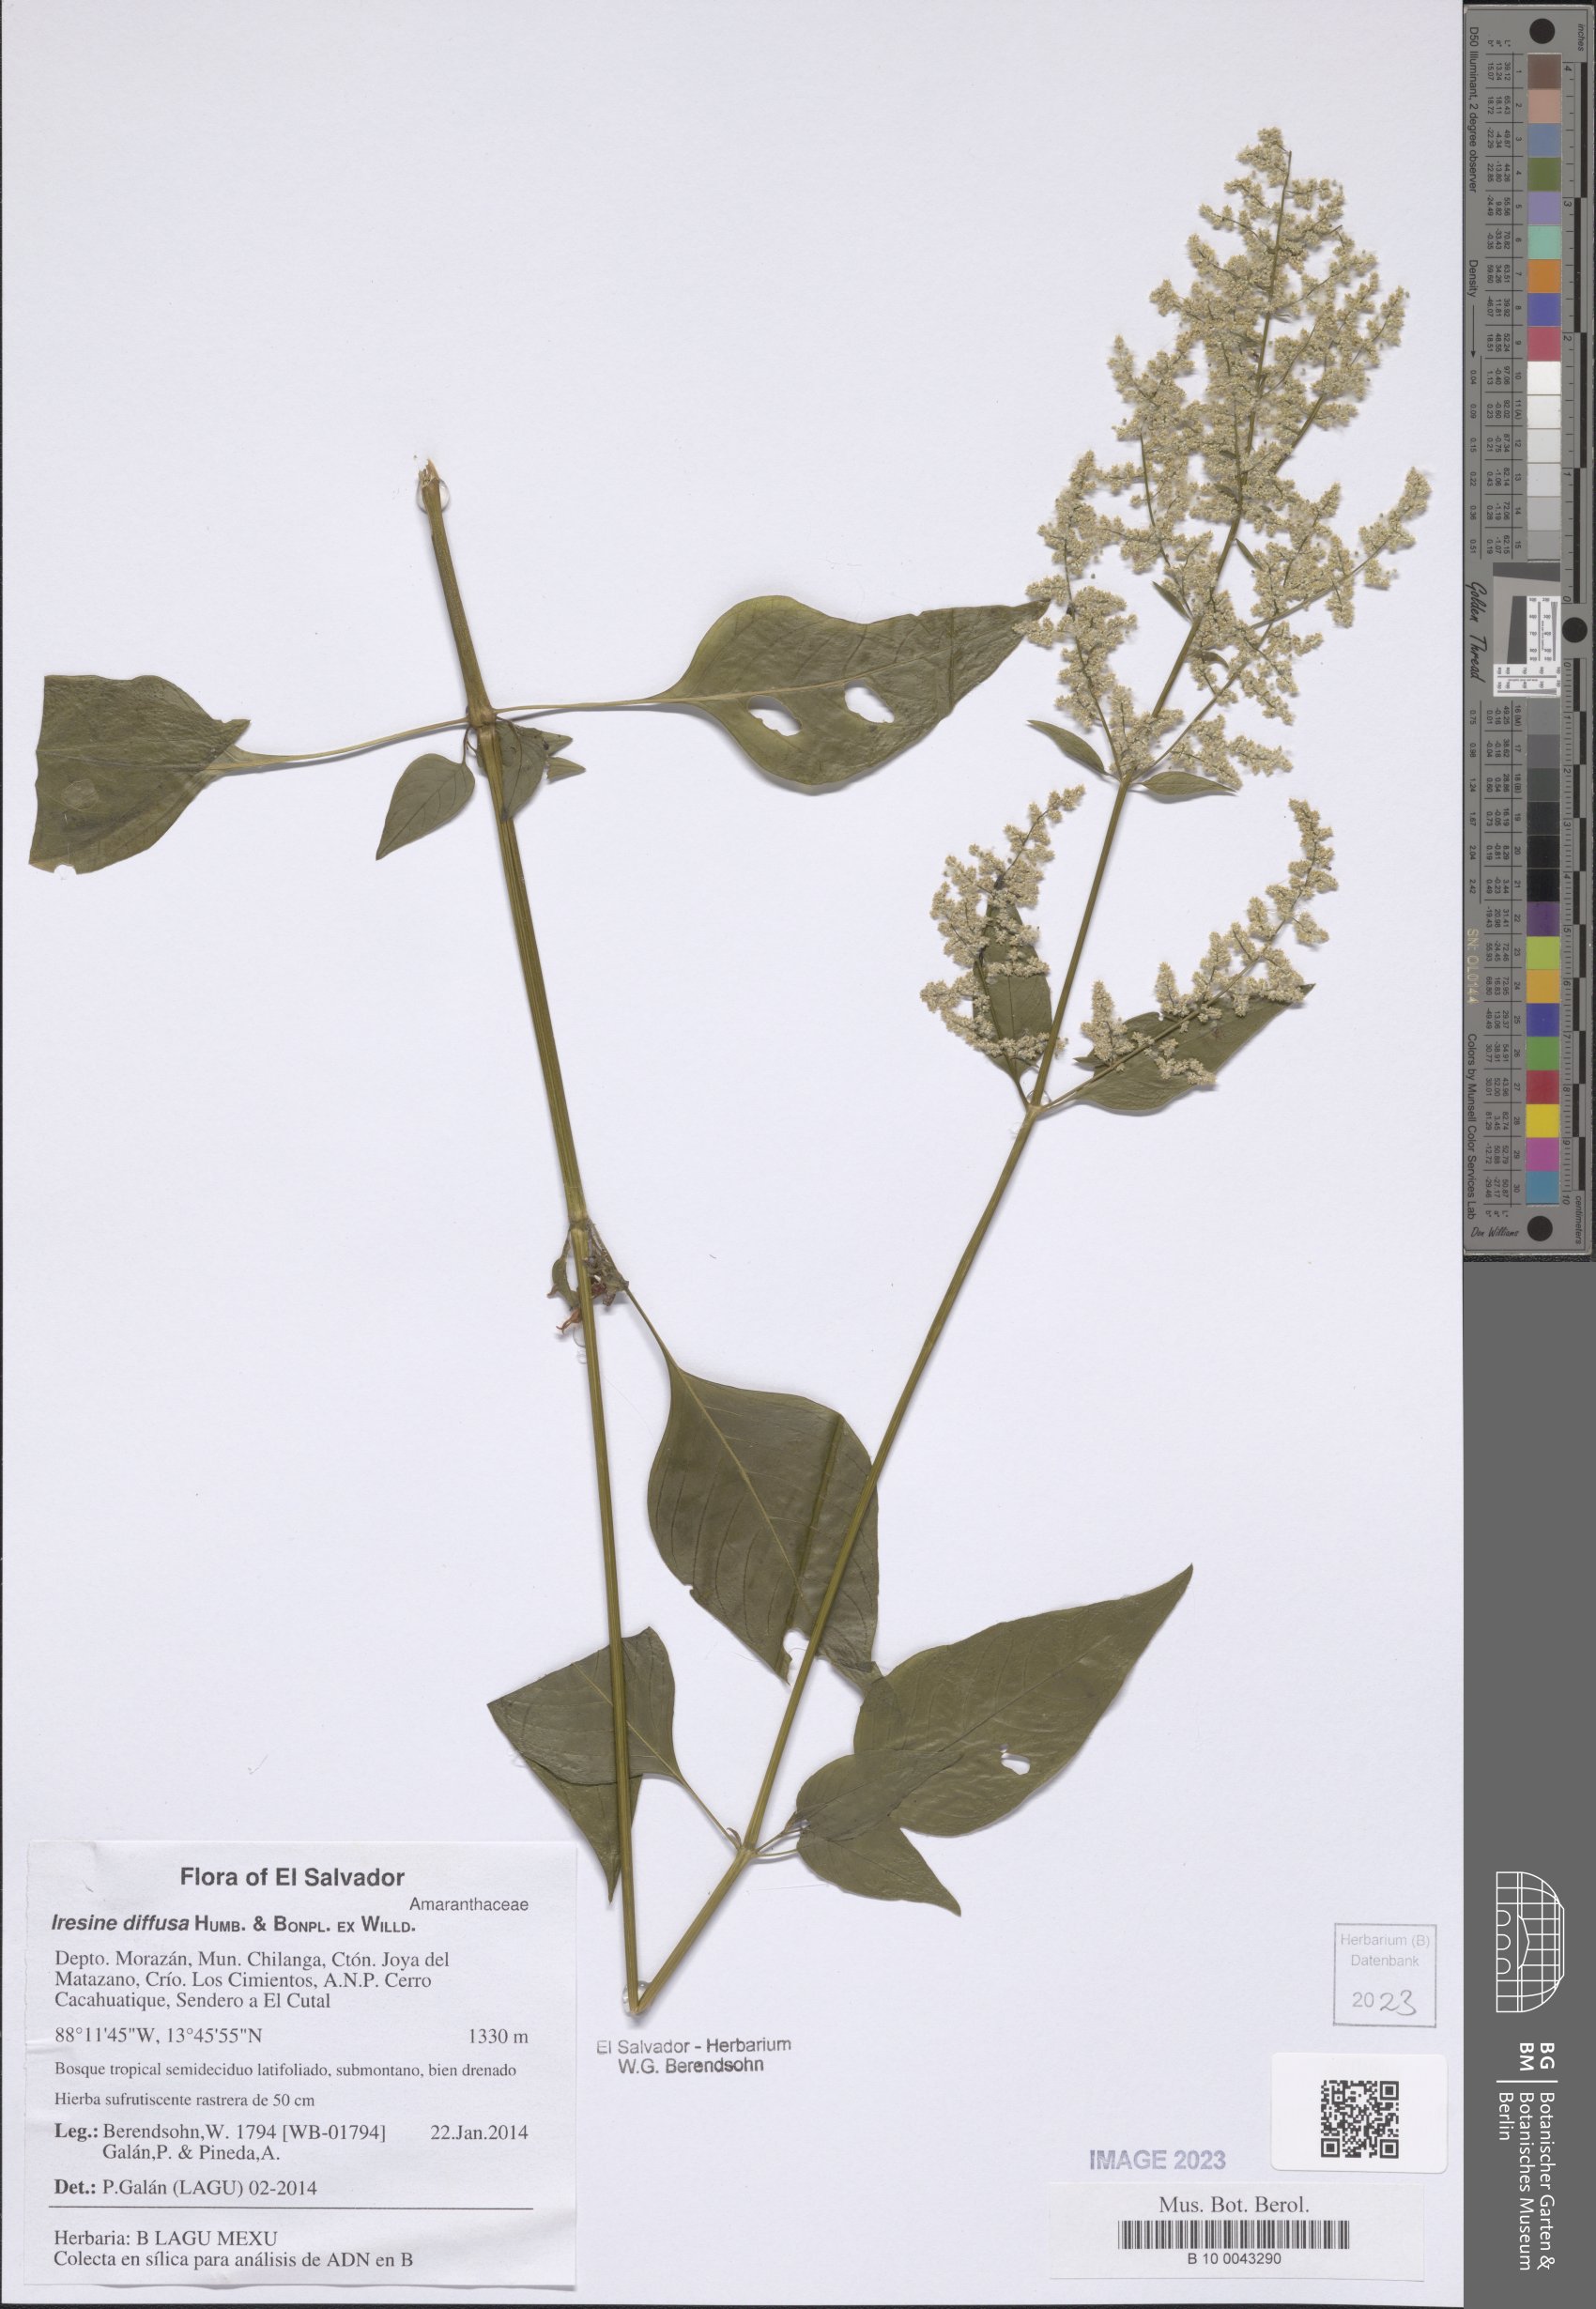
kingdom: Plantae
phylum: Tracheophyta
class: Magnoliopsida
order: Caryophyllales
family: Amaranthaceae
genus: Iresine
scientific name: Iresine diffusa
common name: Juba's-bush
